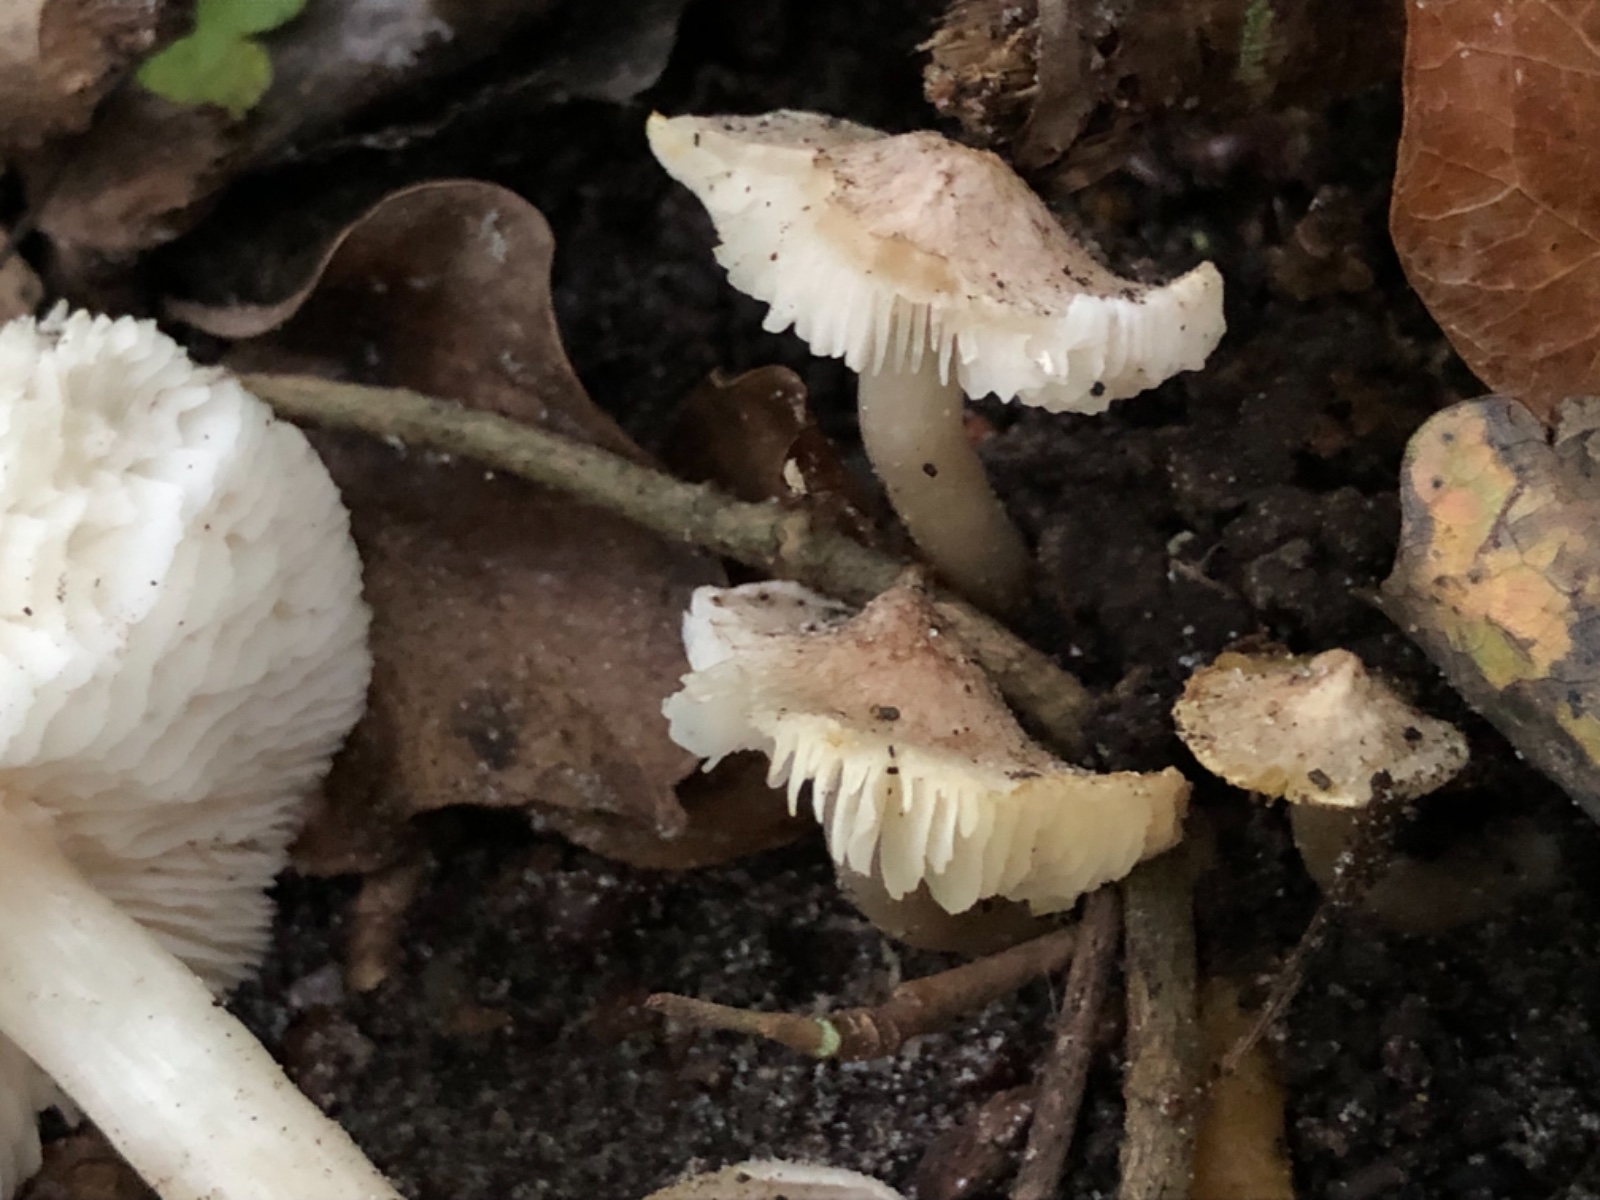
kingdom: Fungi
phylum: Basidiomycota
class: Agaricomycetes
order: Agaricales
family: Tricholomataceae
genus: Tricholoma
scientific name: Tricholoma argyraceum
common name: spids ridderhat
